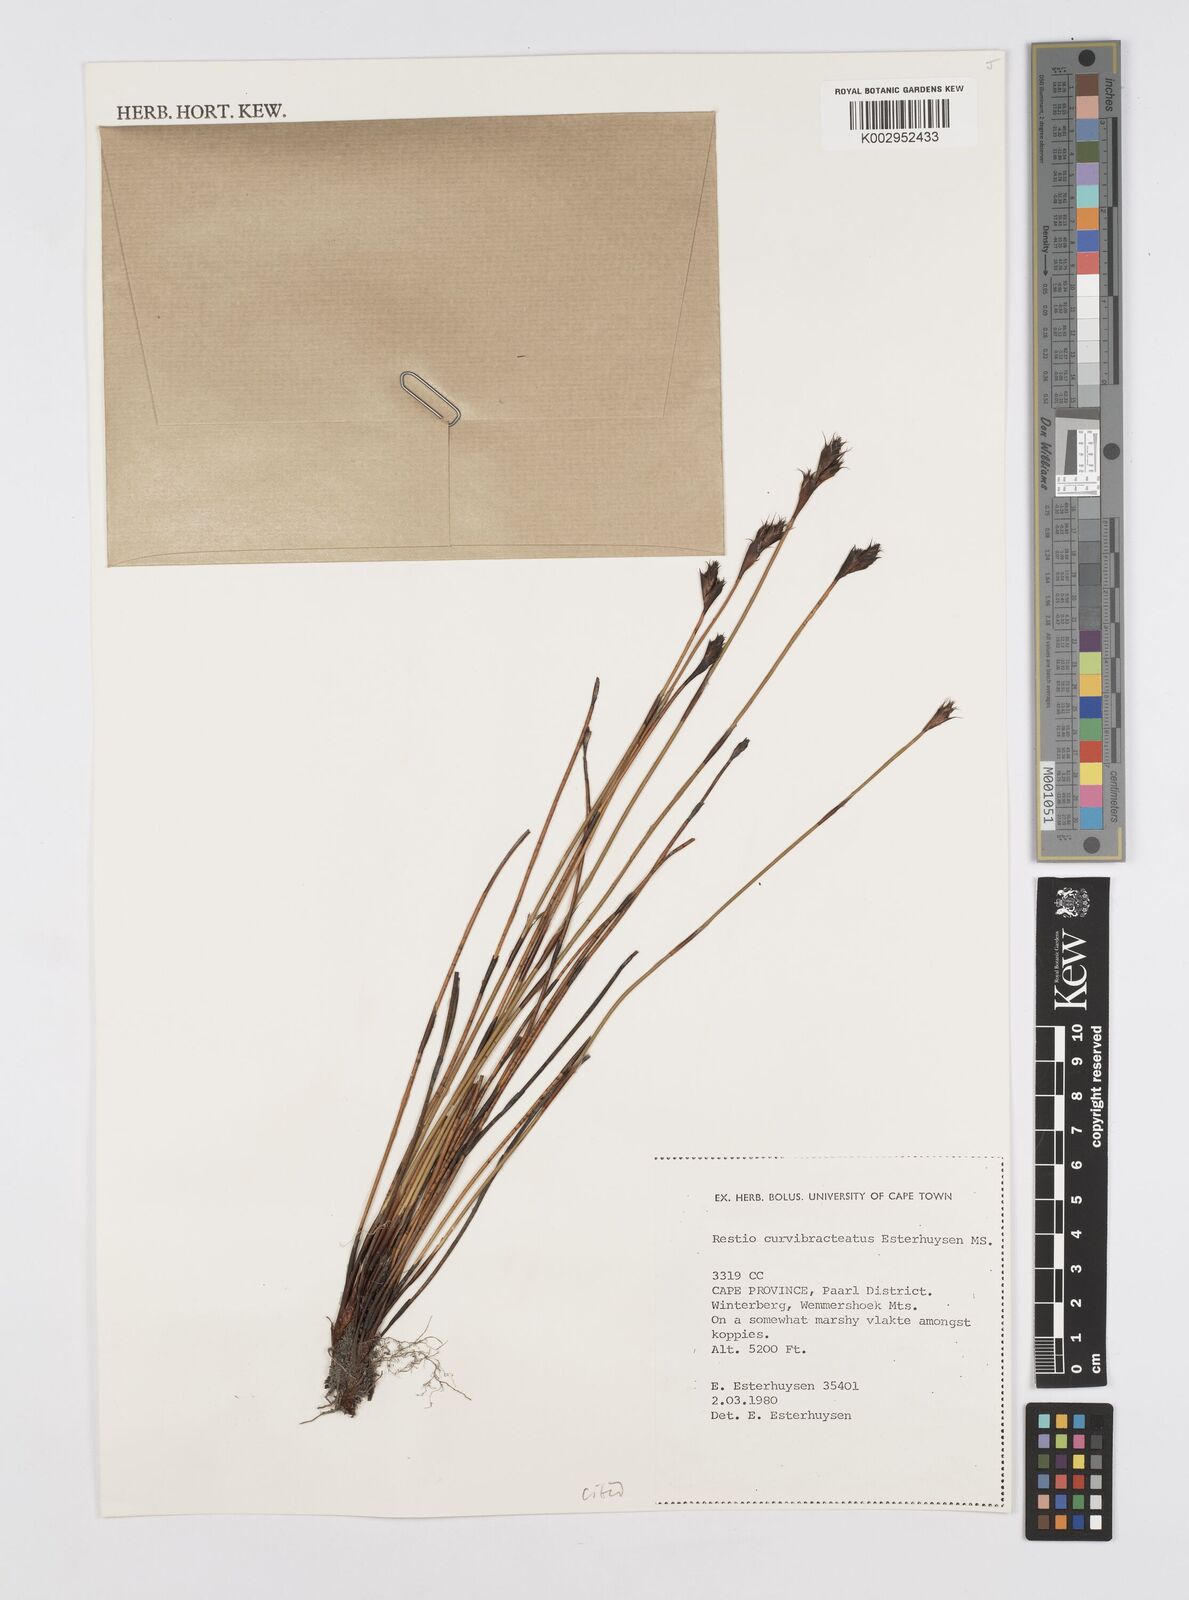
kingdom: Plantae
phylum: Tracheophyta
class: Liliopsida
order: Poales
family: Restionaceae
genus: Restio
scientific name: Restio curvibracteatus
